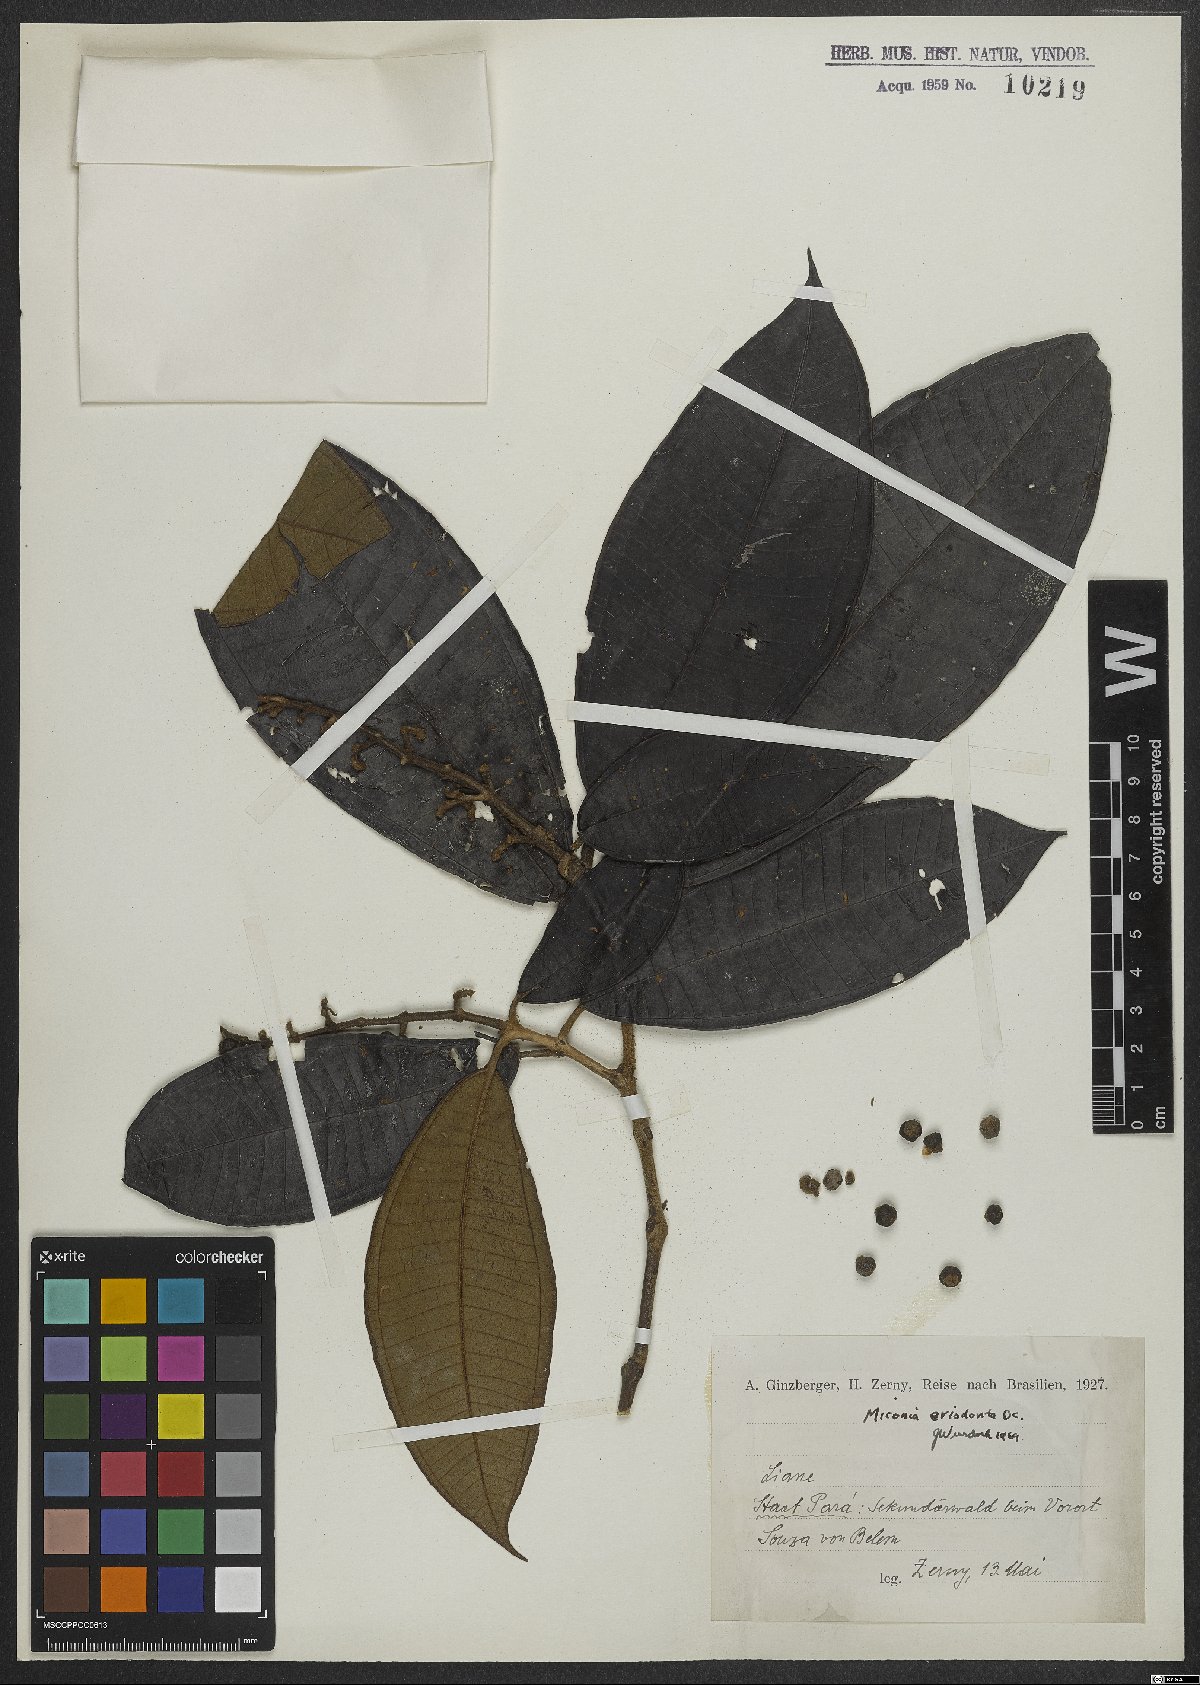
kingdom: Plantae
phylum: Tracheophyta
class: Magnoliopsida
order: Myrtales
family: Melastomataceae
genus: Miconia
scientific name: Miconia eriodonta
